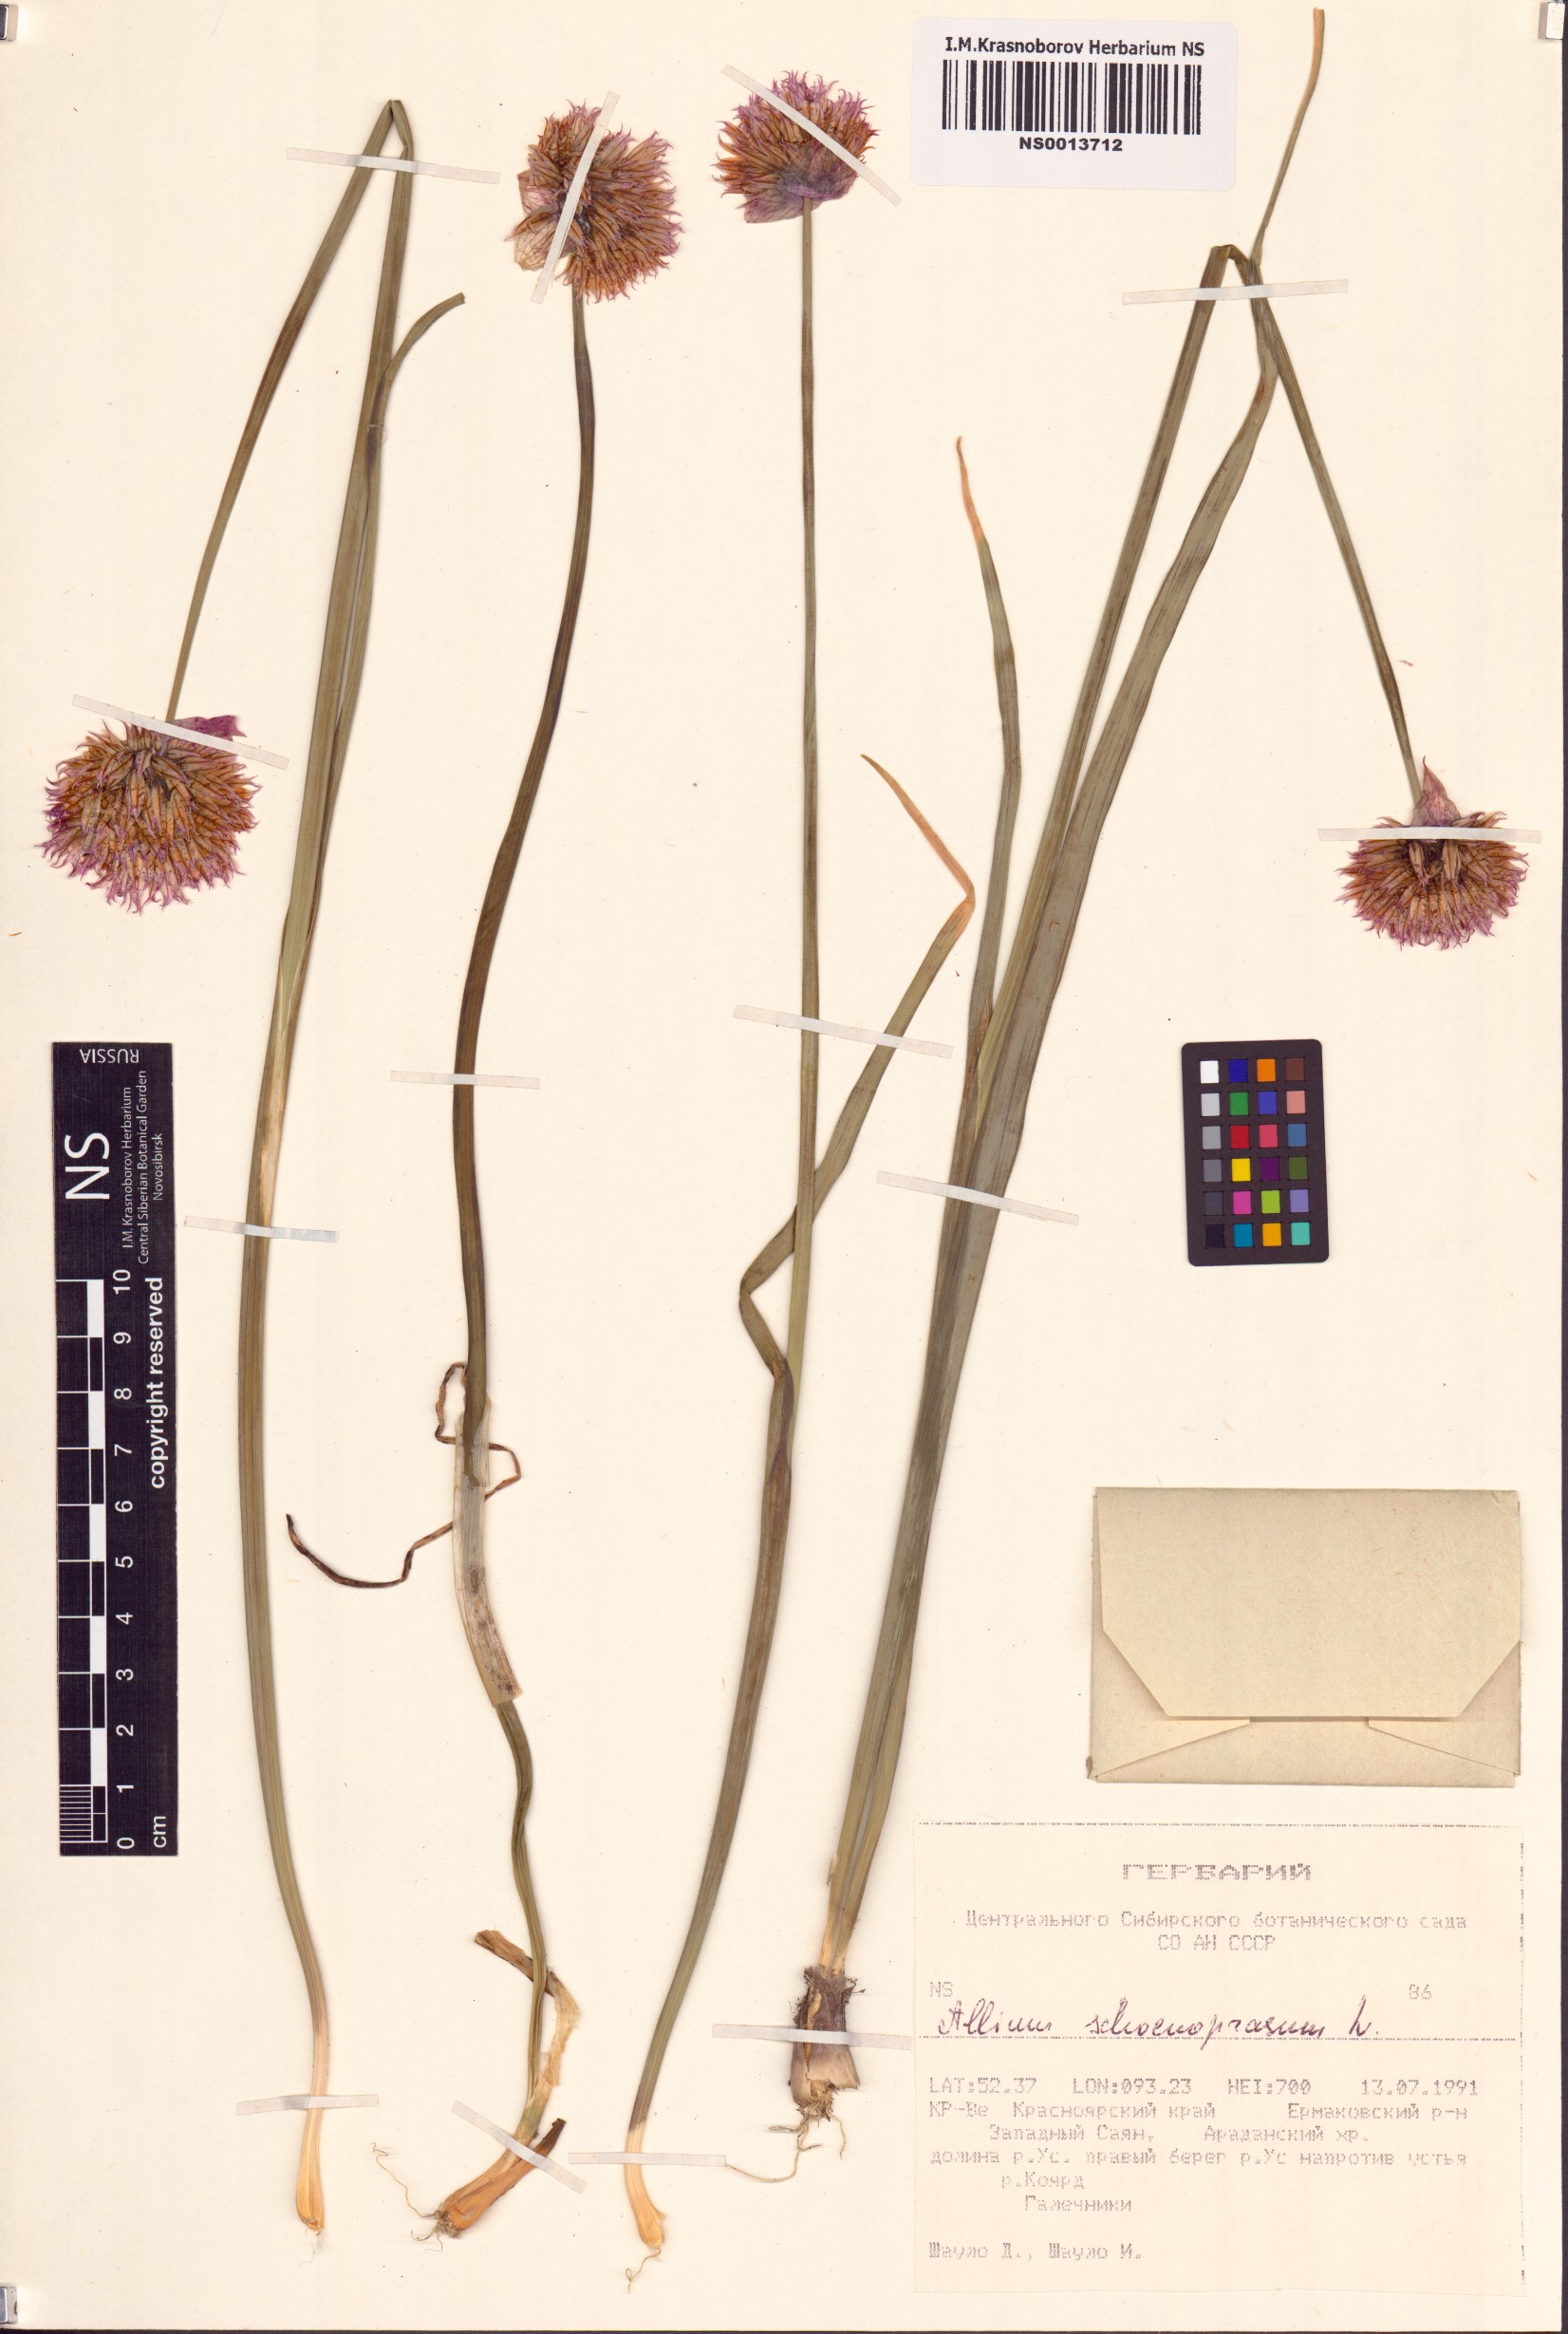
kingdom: Plantae
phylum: Tracheophyta
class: Liliopsida
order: Asparagales
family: Amaryllidaceae
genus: Allium
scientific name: Allium schoenoprasum
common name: Chives
